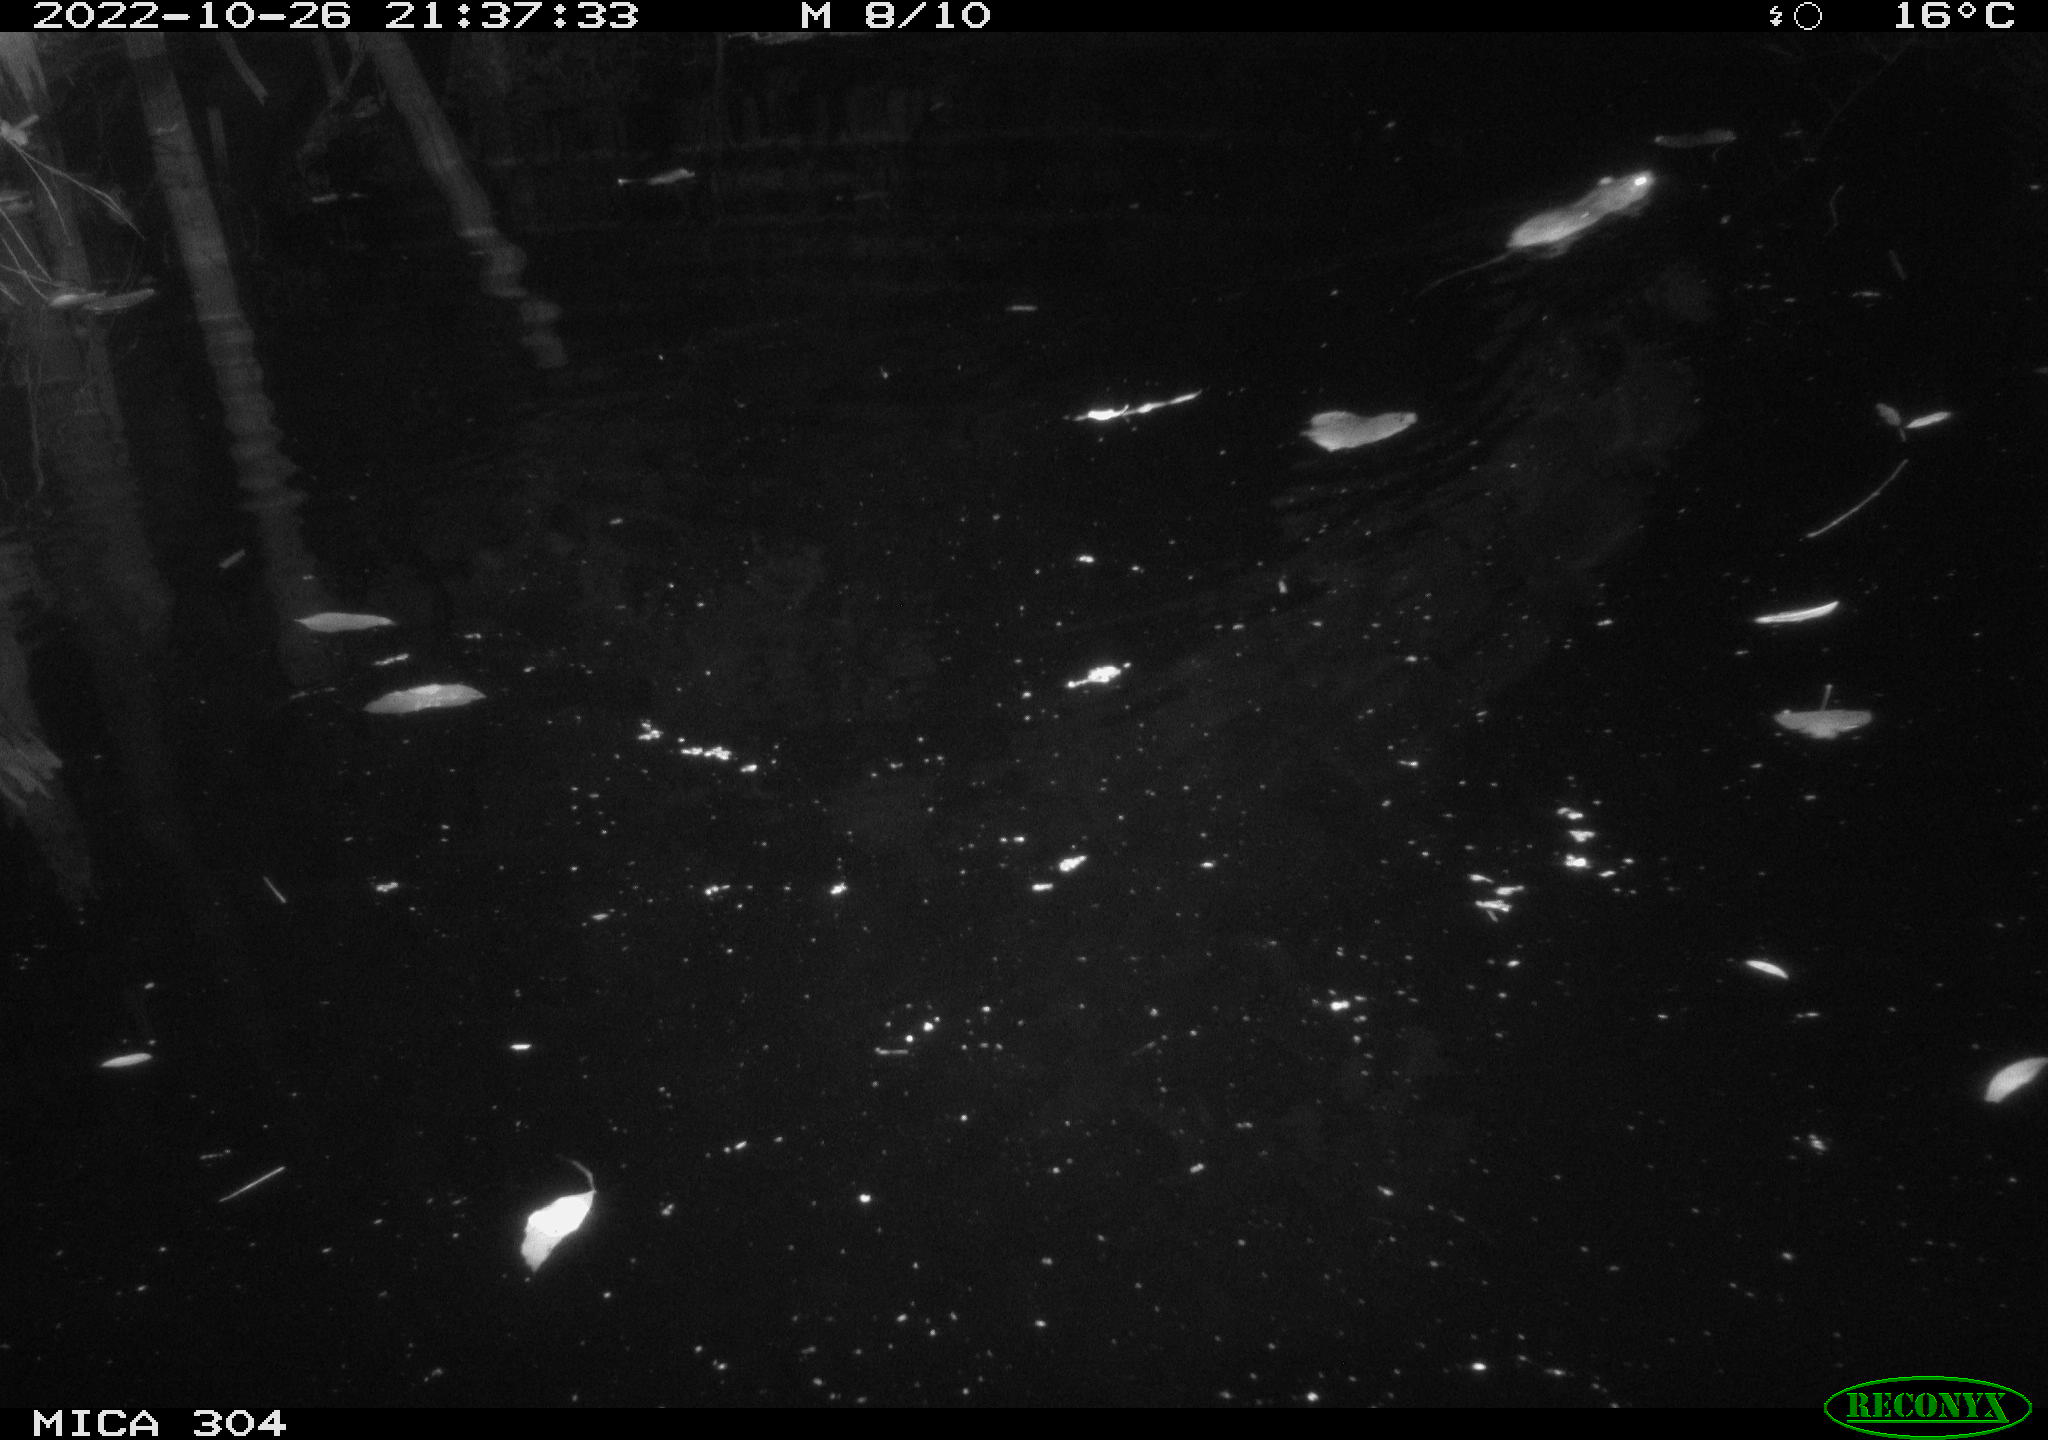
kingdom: Animalia
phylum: Chordata
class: Mammalia
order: Rodentia
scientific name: Rodentia
